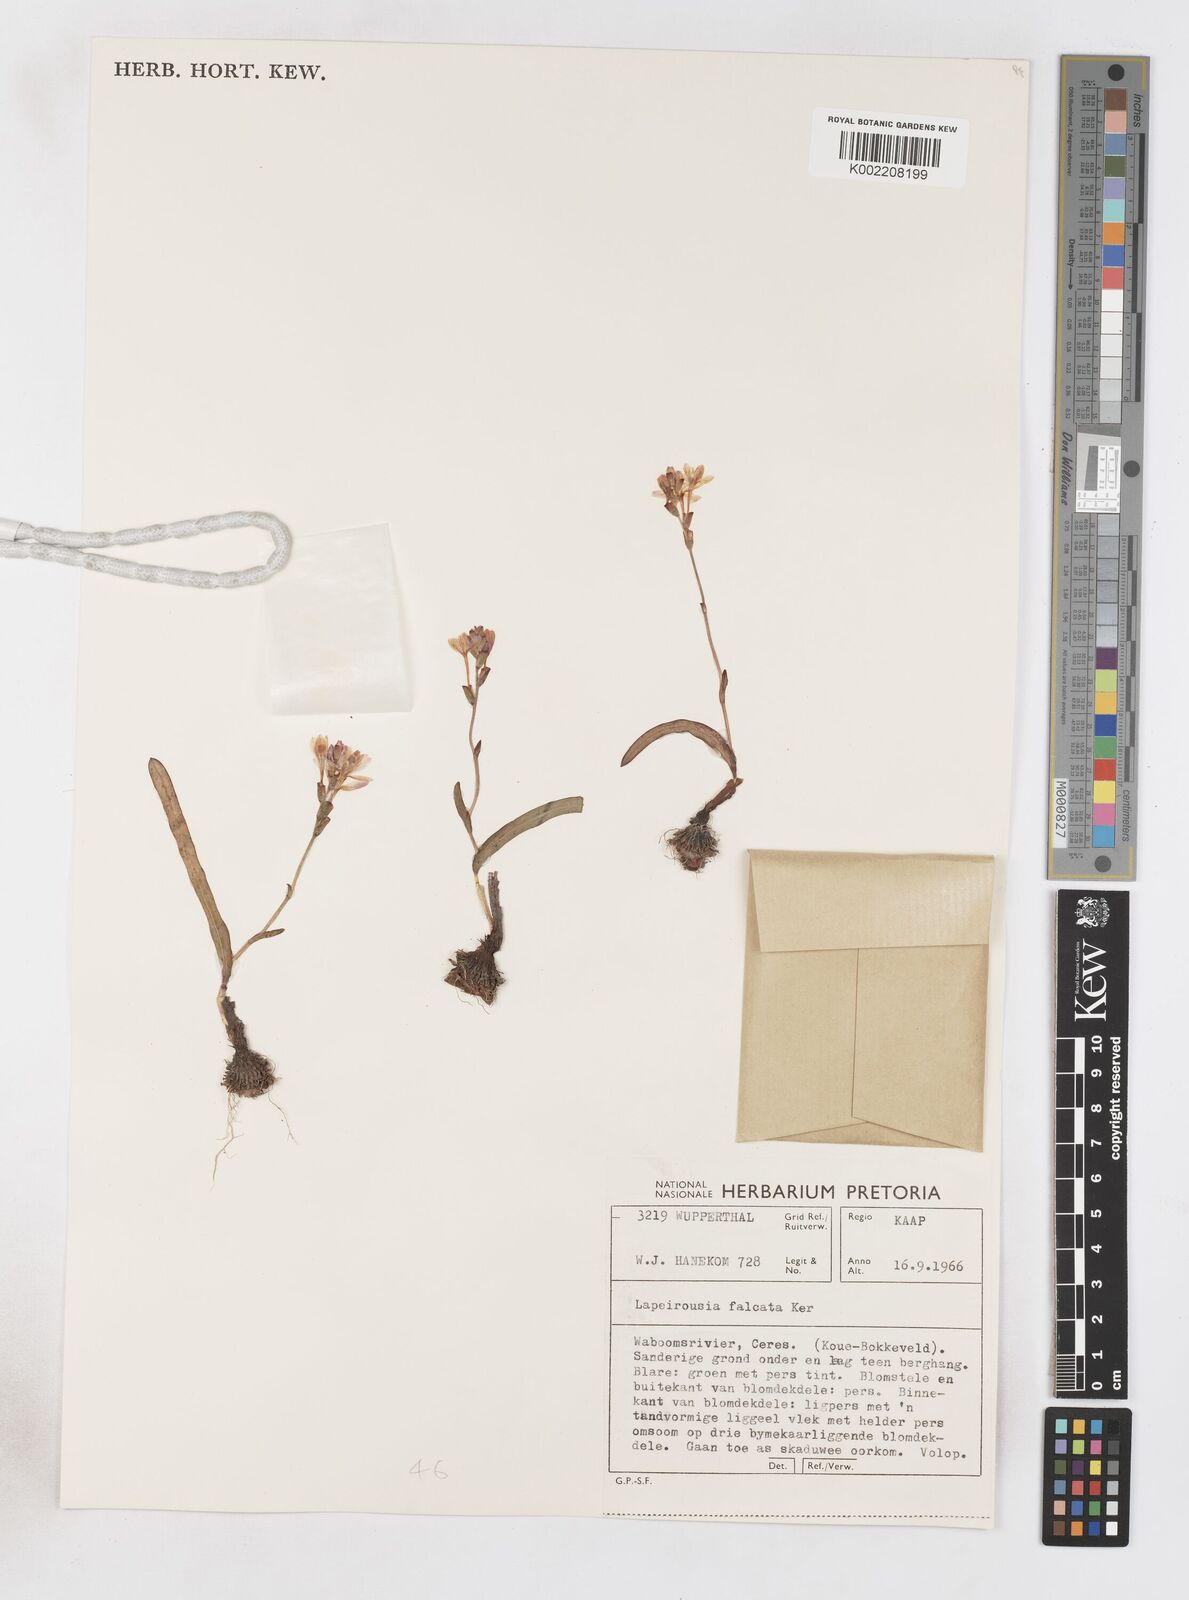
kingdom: Plantae
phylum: Tracheophyta
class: Liliopsida
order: Asparagales
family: Iridaceae
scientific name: Iridaceae
